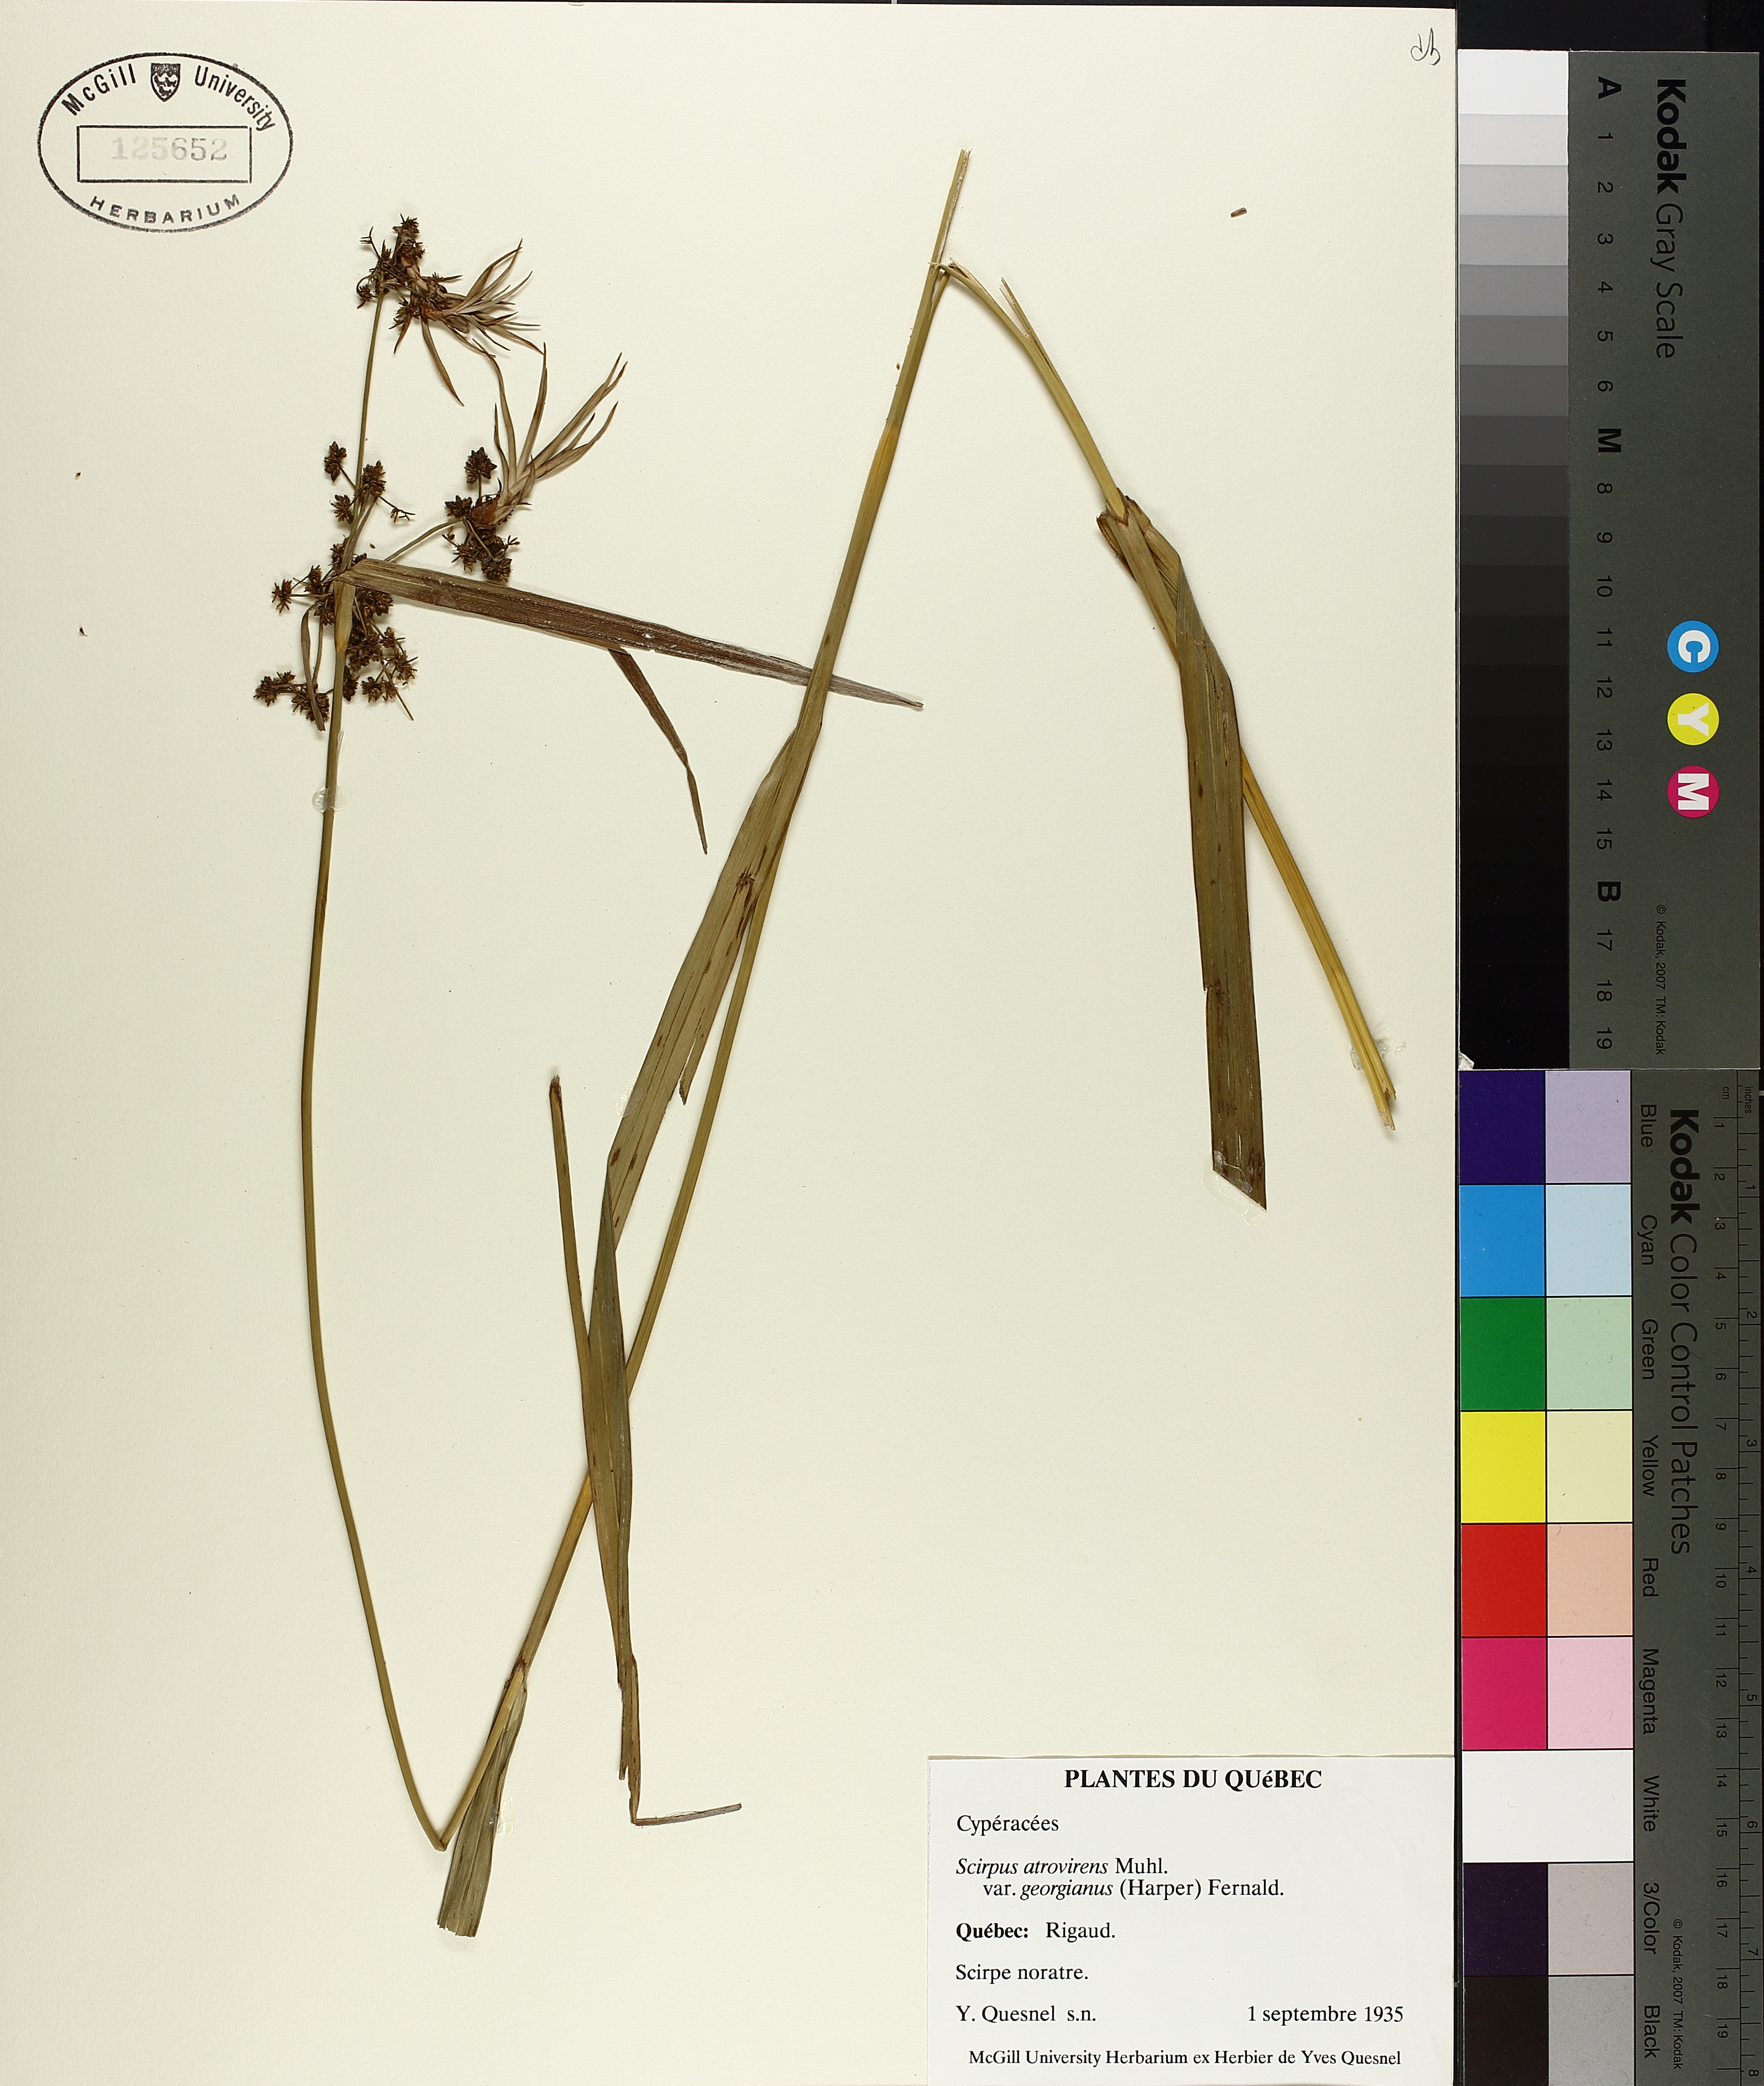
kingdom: Plantae
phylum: Tracheophyta
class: Liliopsida
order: Poales
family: Cyperaceae
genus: Scirpus
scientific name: Scirpus georgianus
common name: Bristleless dark-green bulrush
